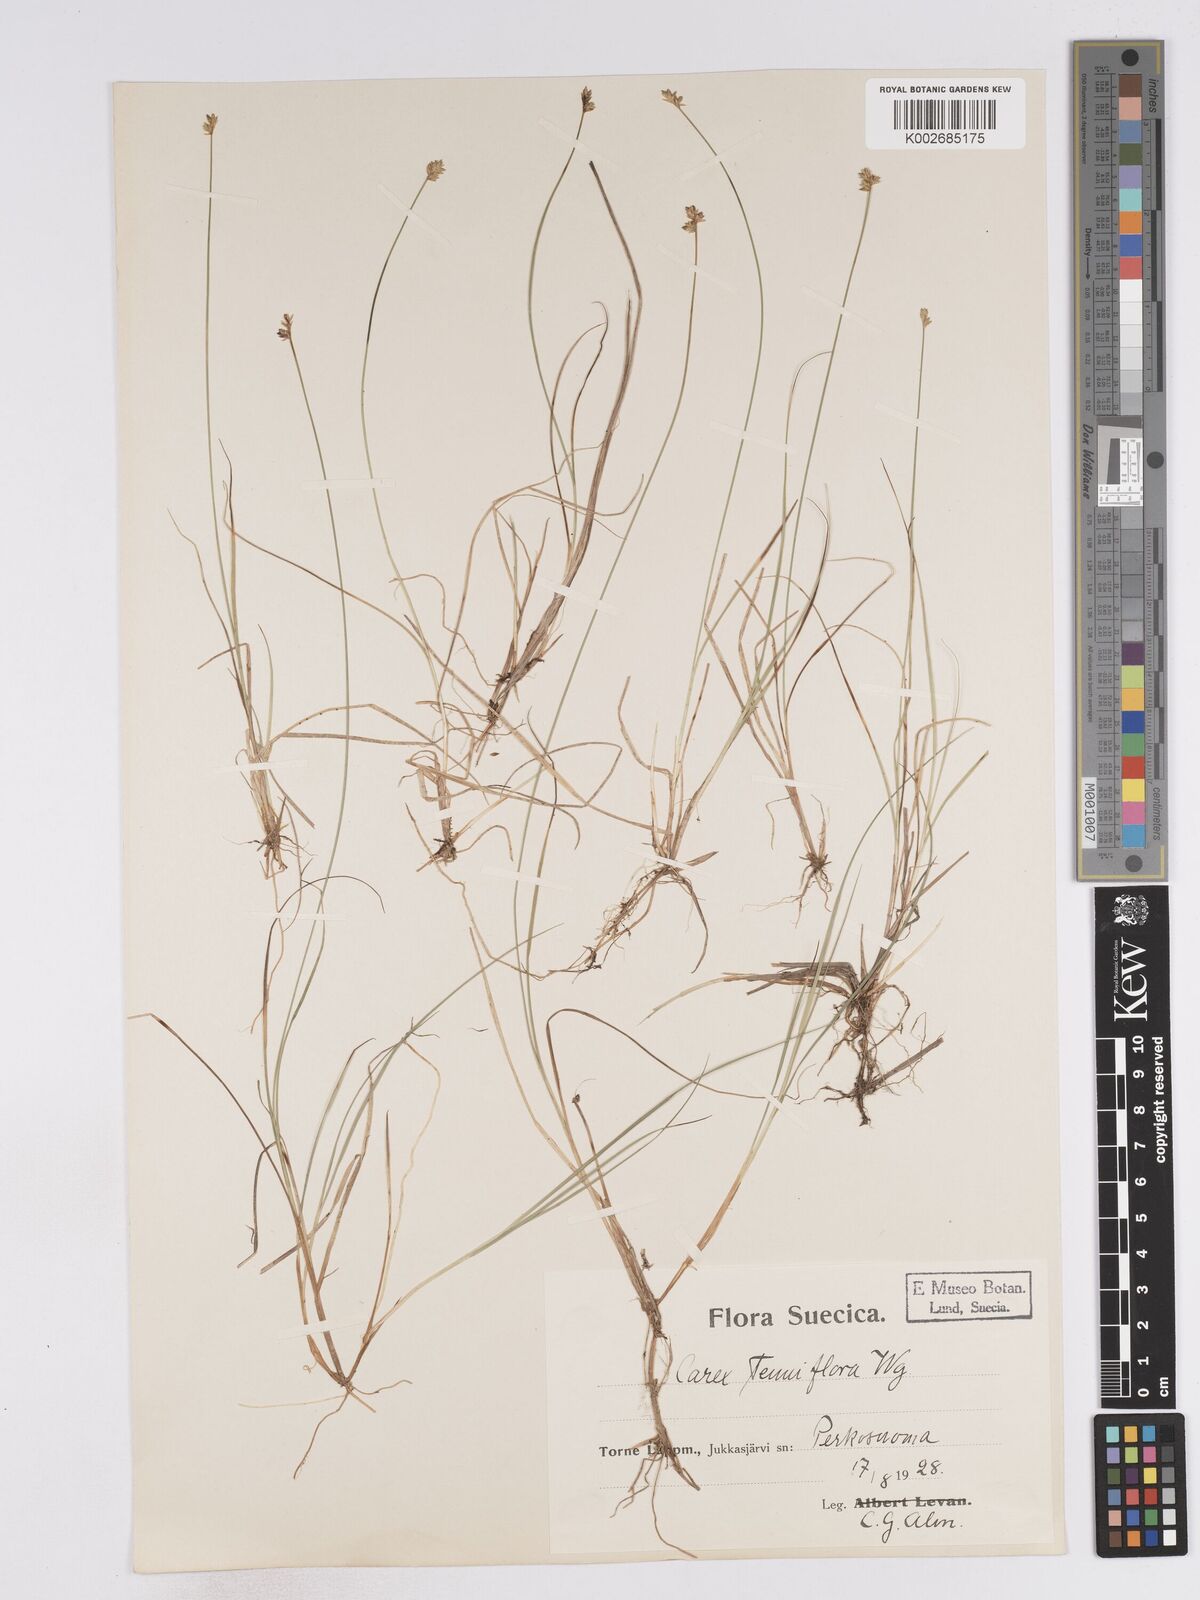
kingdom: Plantae
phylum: Tracheophyta
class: Liliopsida
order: Poales
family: Cyperaceae
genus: Carex
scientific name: Carex tenuiflora
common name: Sparse-flowered sedge
